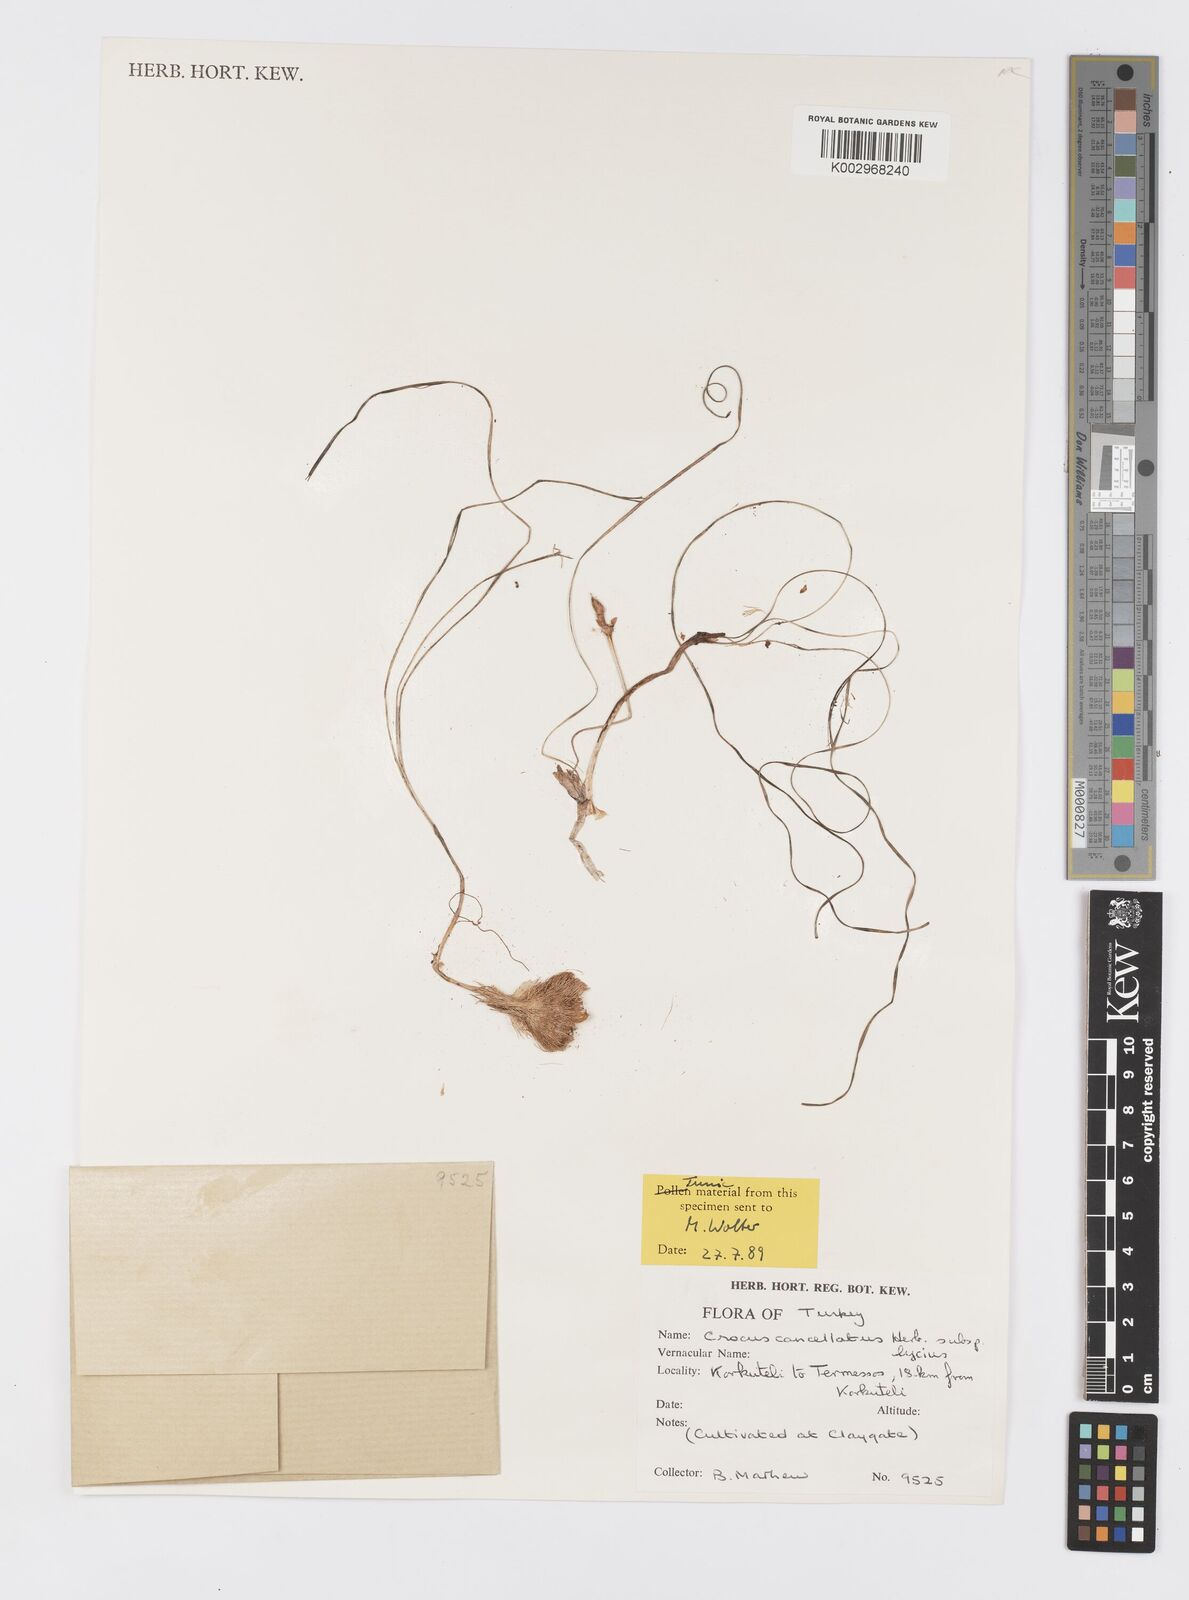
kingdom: Plantae
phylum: Tracheophyta
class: Liliopsida
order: Asparagales
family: Iridaceae
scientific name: Iridaceae
